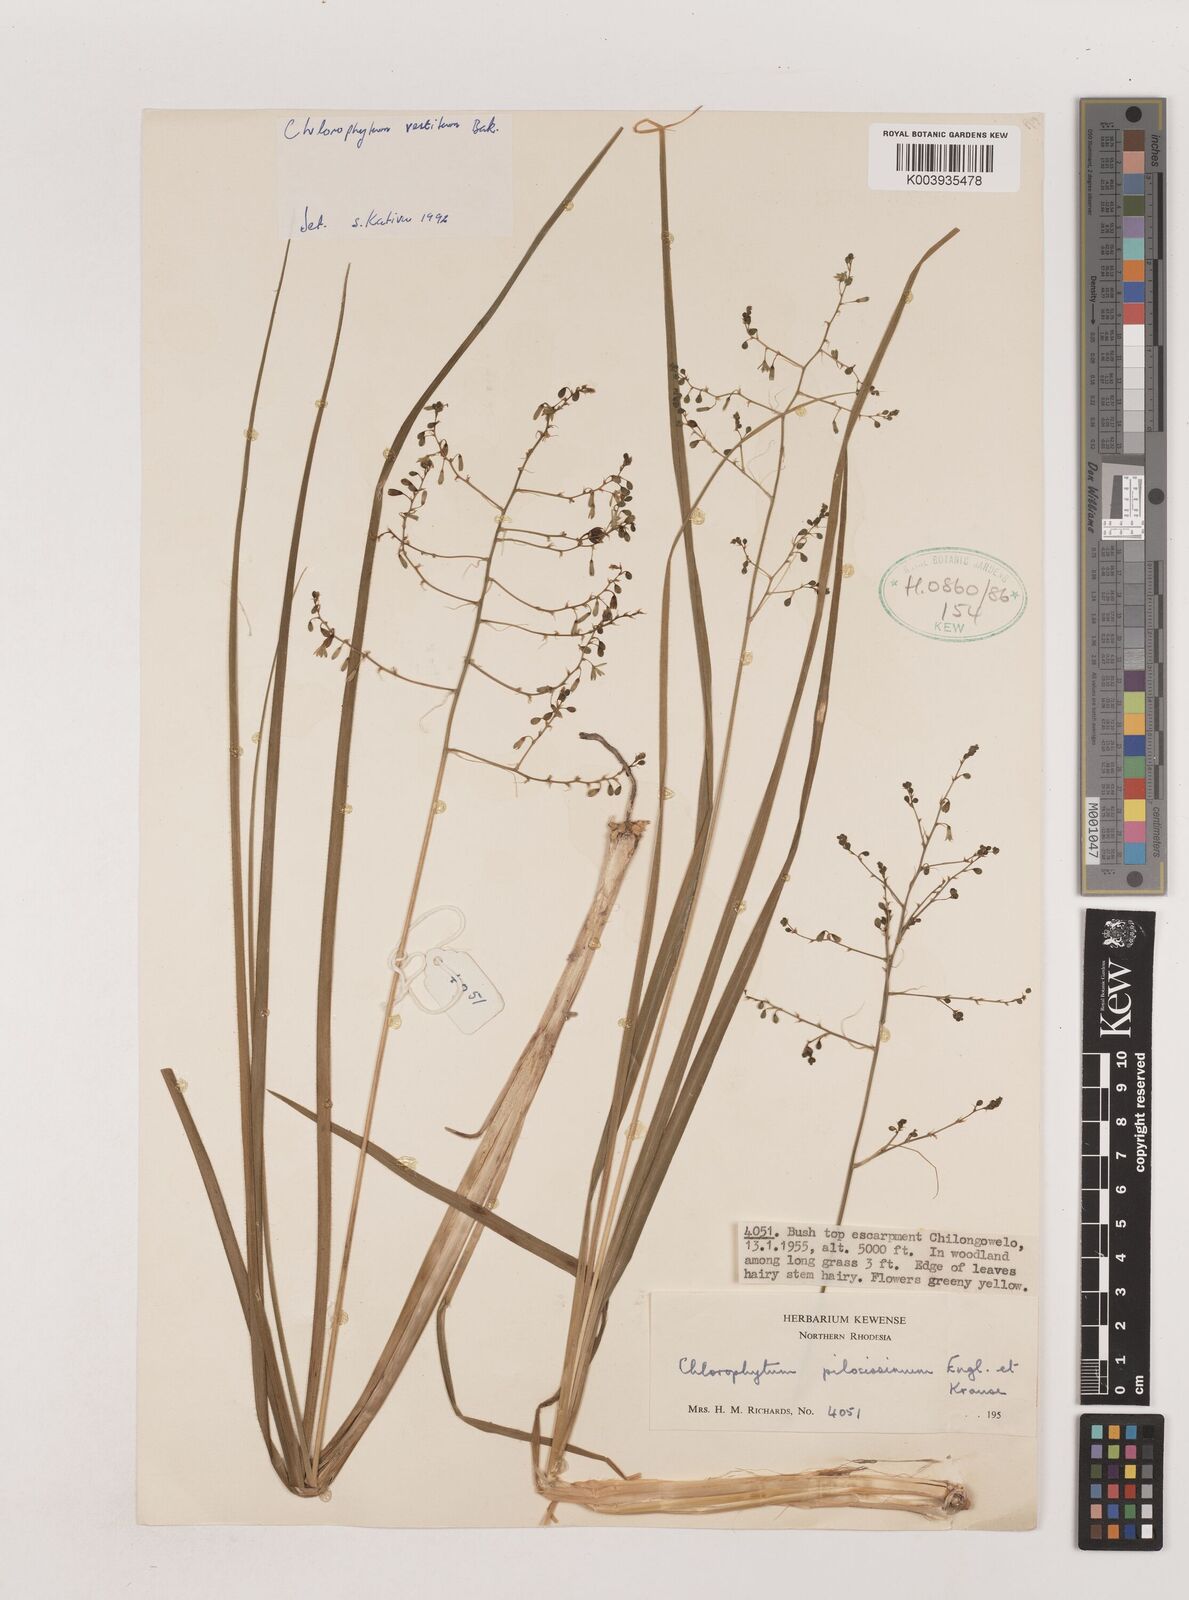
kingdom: Plantae
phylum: Tracheophyta
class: Liliopsida
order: Asparagales
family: Asparagaceae
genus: Chlorophytum
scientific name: Chlorophytum vestitum
